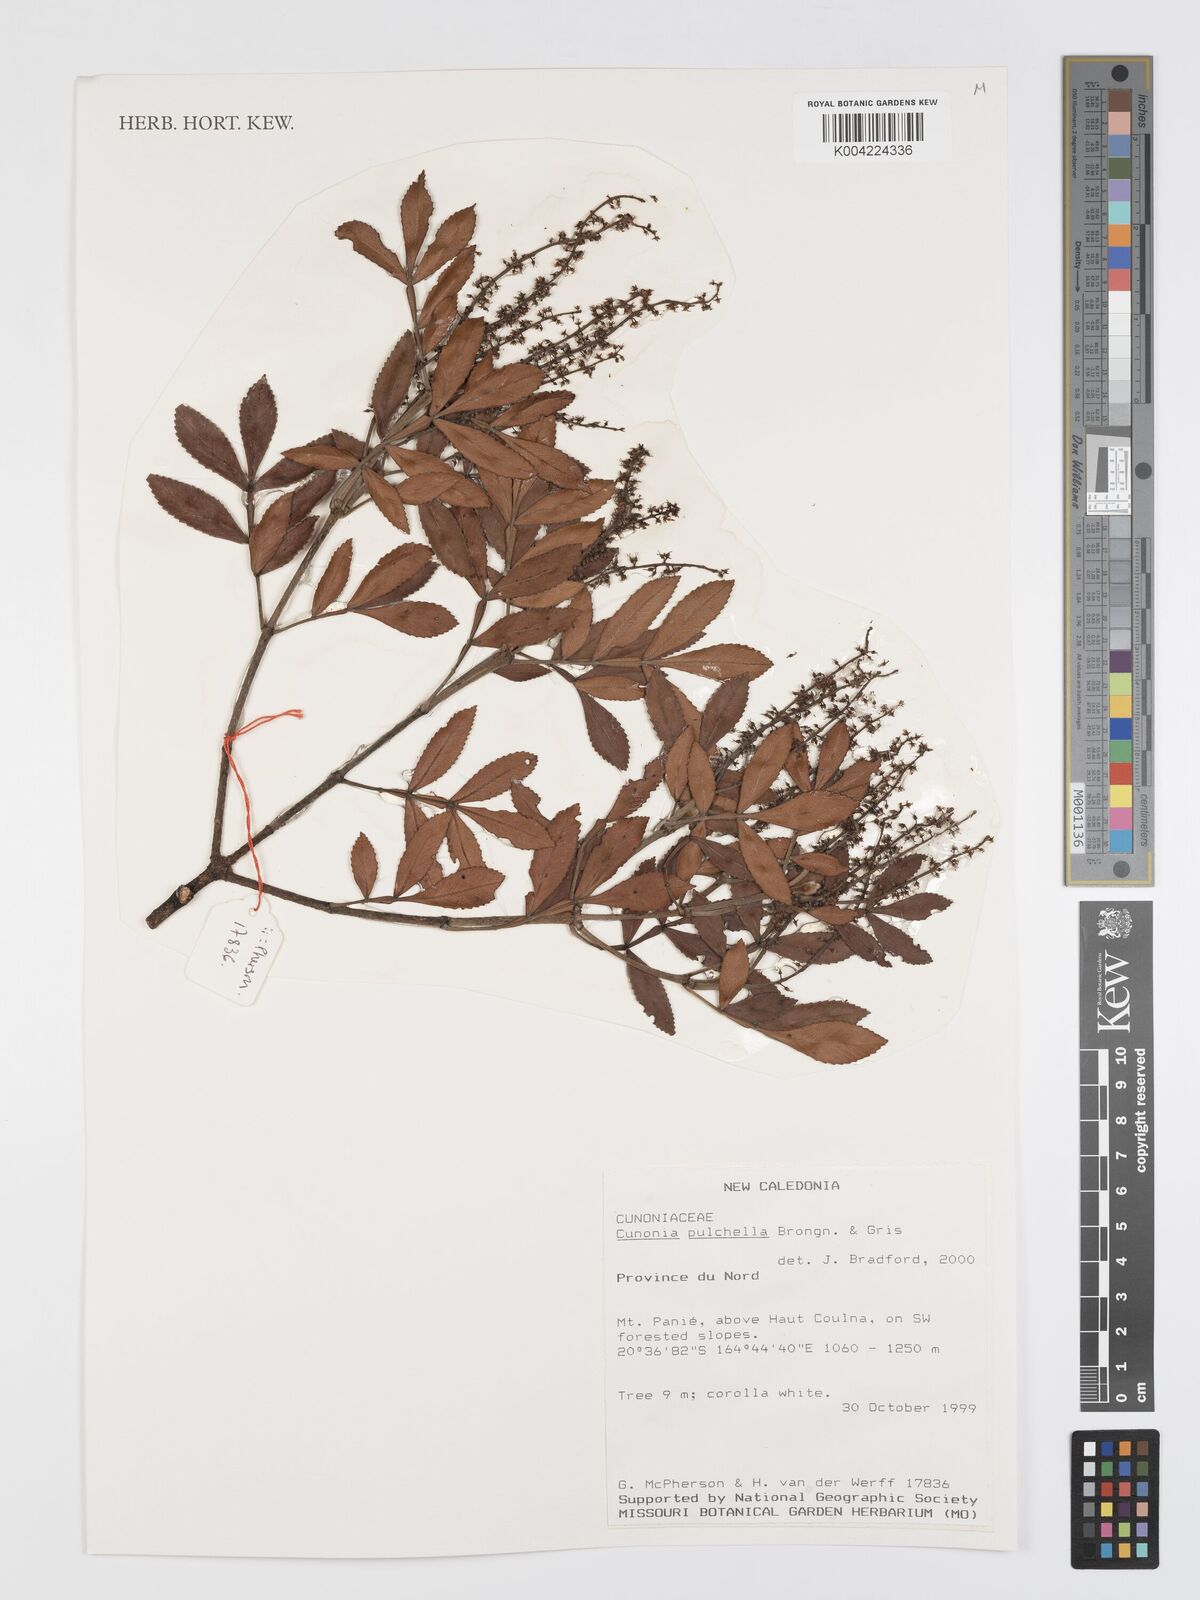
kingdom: Plantae
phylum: Tracheophyta
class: Magnoliopsida
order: Oxalidales
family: Cunoniaceae
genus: Cunonia
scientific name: Cunonia pulchella
